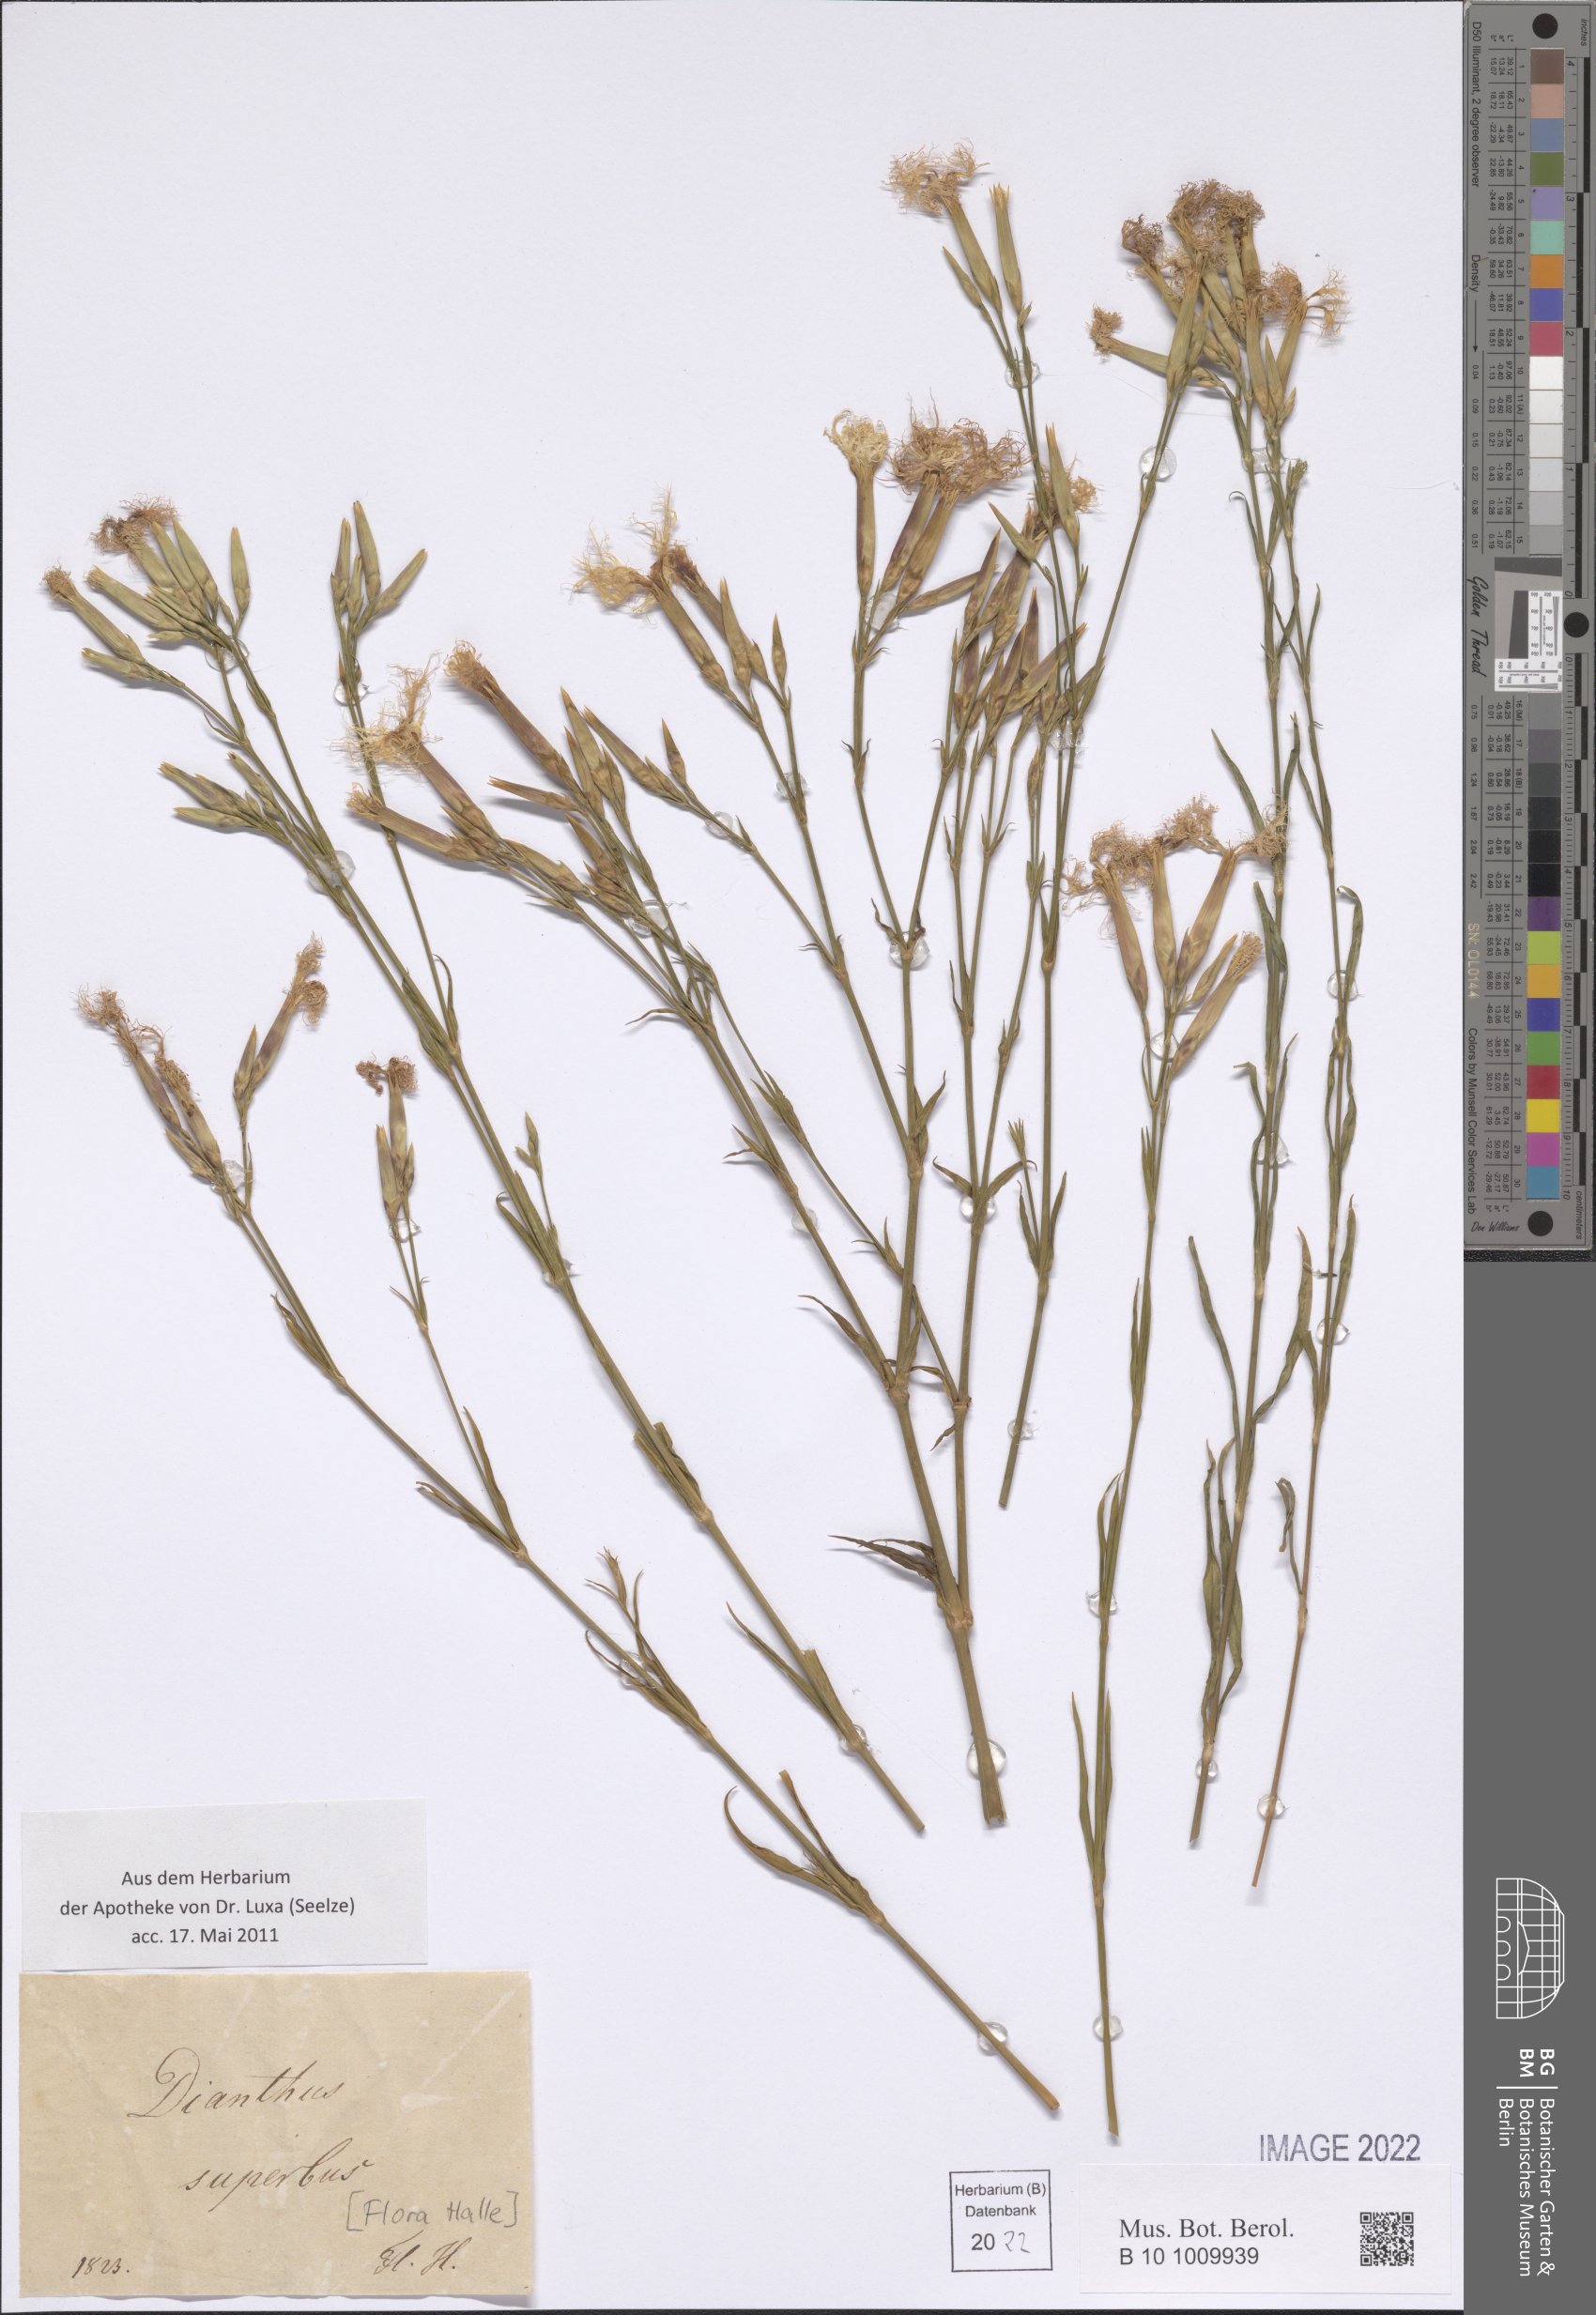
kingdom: Plantae
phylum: Tracheophyta
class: Magnoliopsida
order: Caryophyllales
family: Caryophyllaceae
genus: Dianthus
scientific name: Dianthus superbus
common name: Fringed pink
